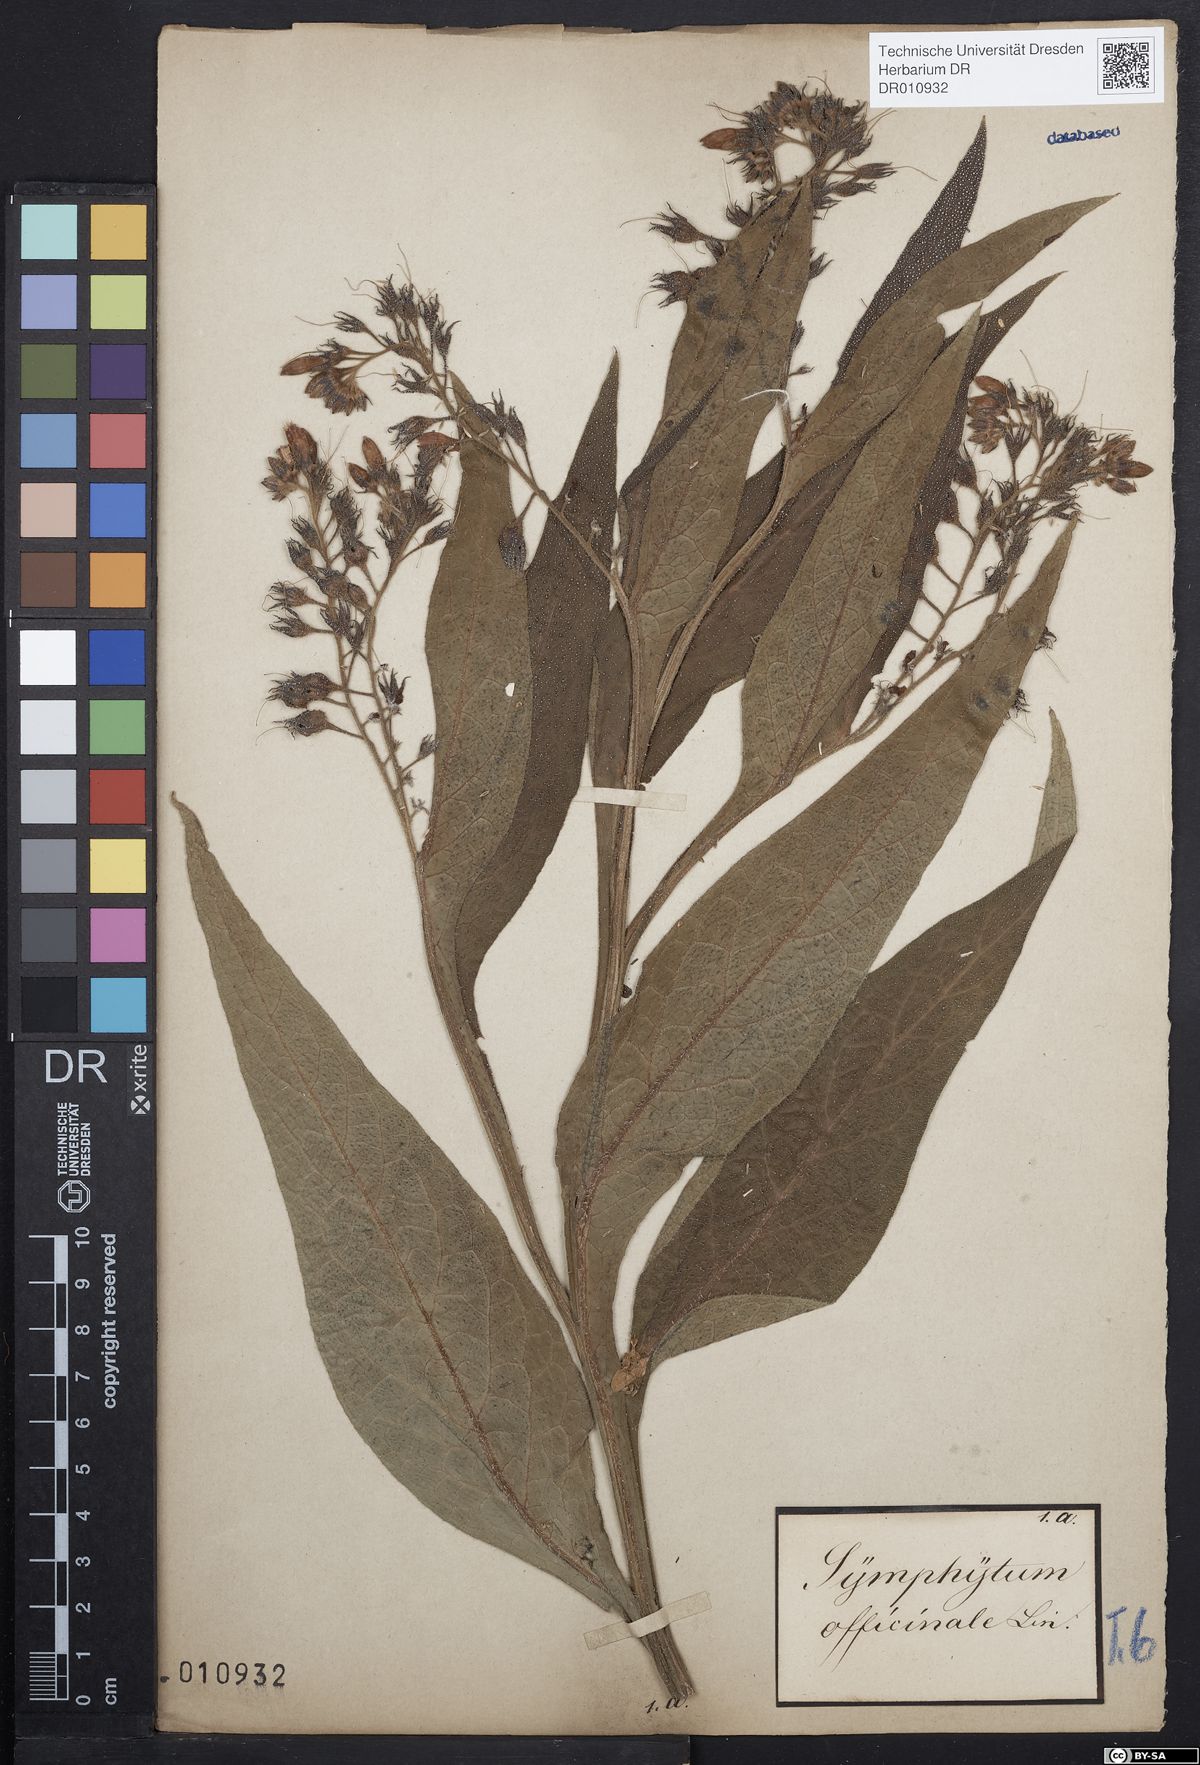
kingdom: Plantae
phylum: Tracheophyta
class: Magnoliopsida
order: Boraginales
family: Boraginaceae
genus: Symphytum
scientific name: Symphytum officinale
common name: Common comfrey
